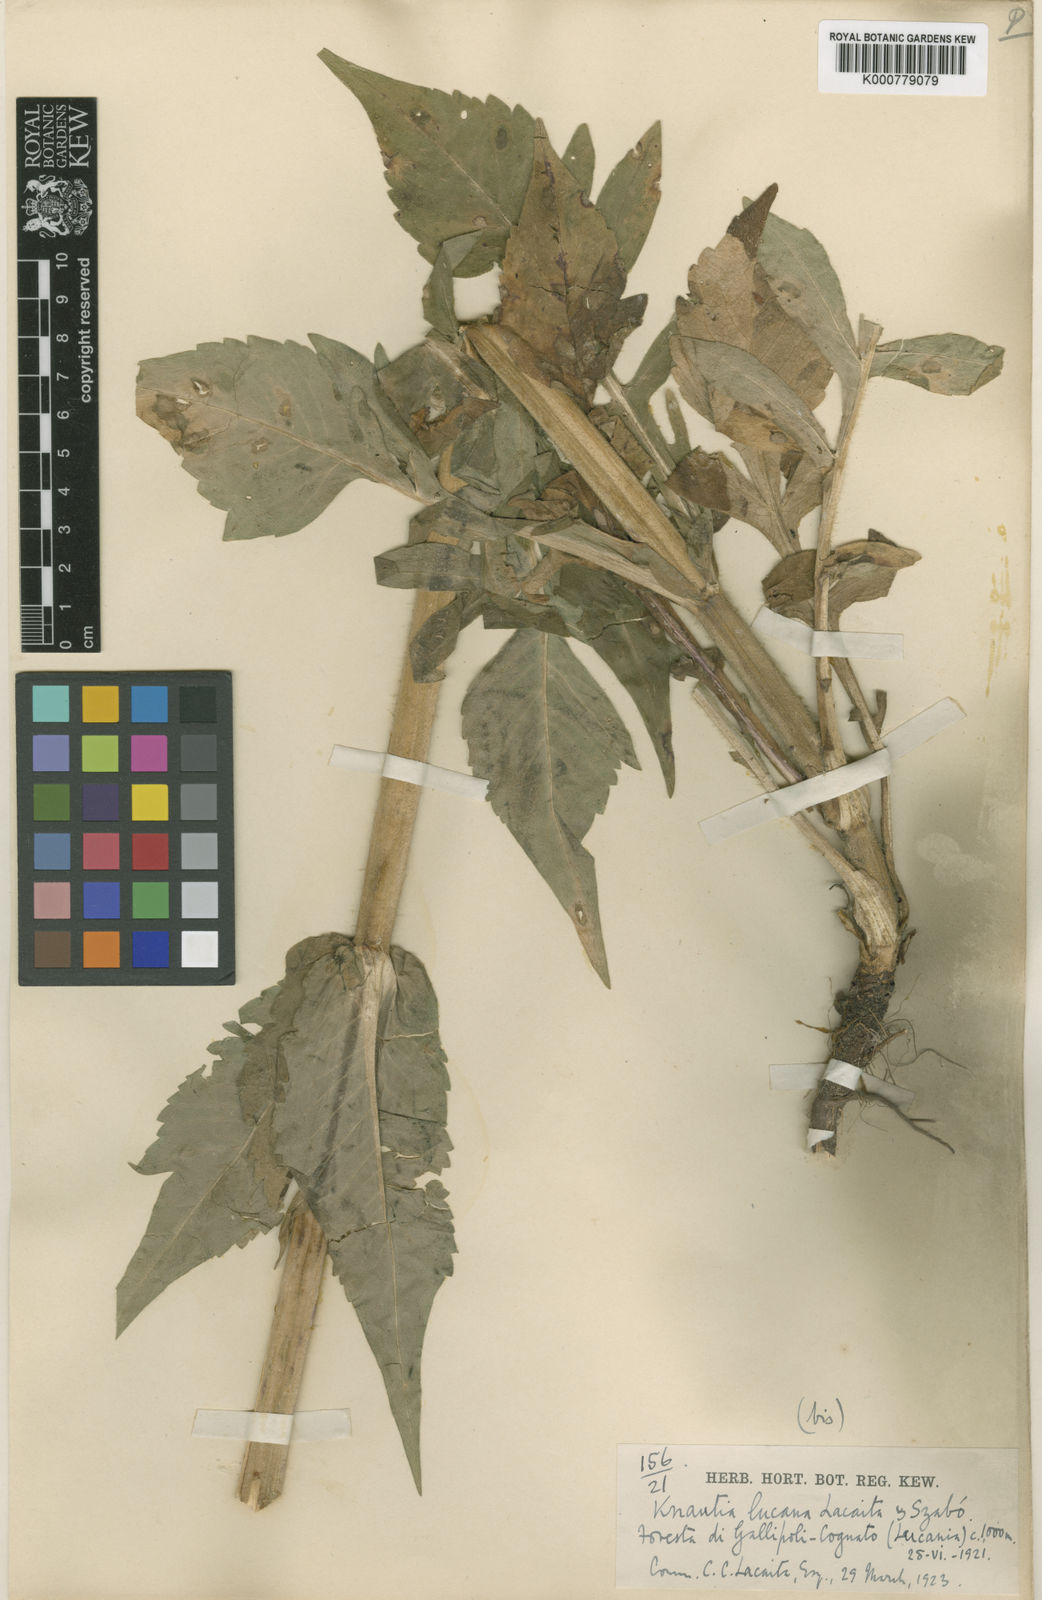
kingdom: Plantae
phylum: Tracheophyta
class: Magnoliopsida
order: Dipsacales
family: Caprifoliaceae
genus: Knautia
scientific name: Knautia
